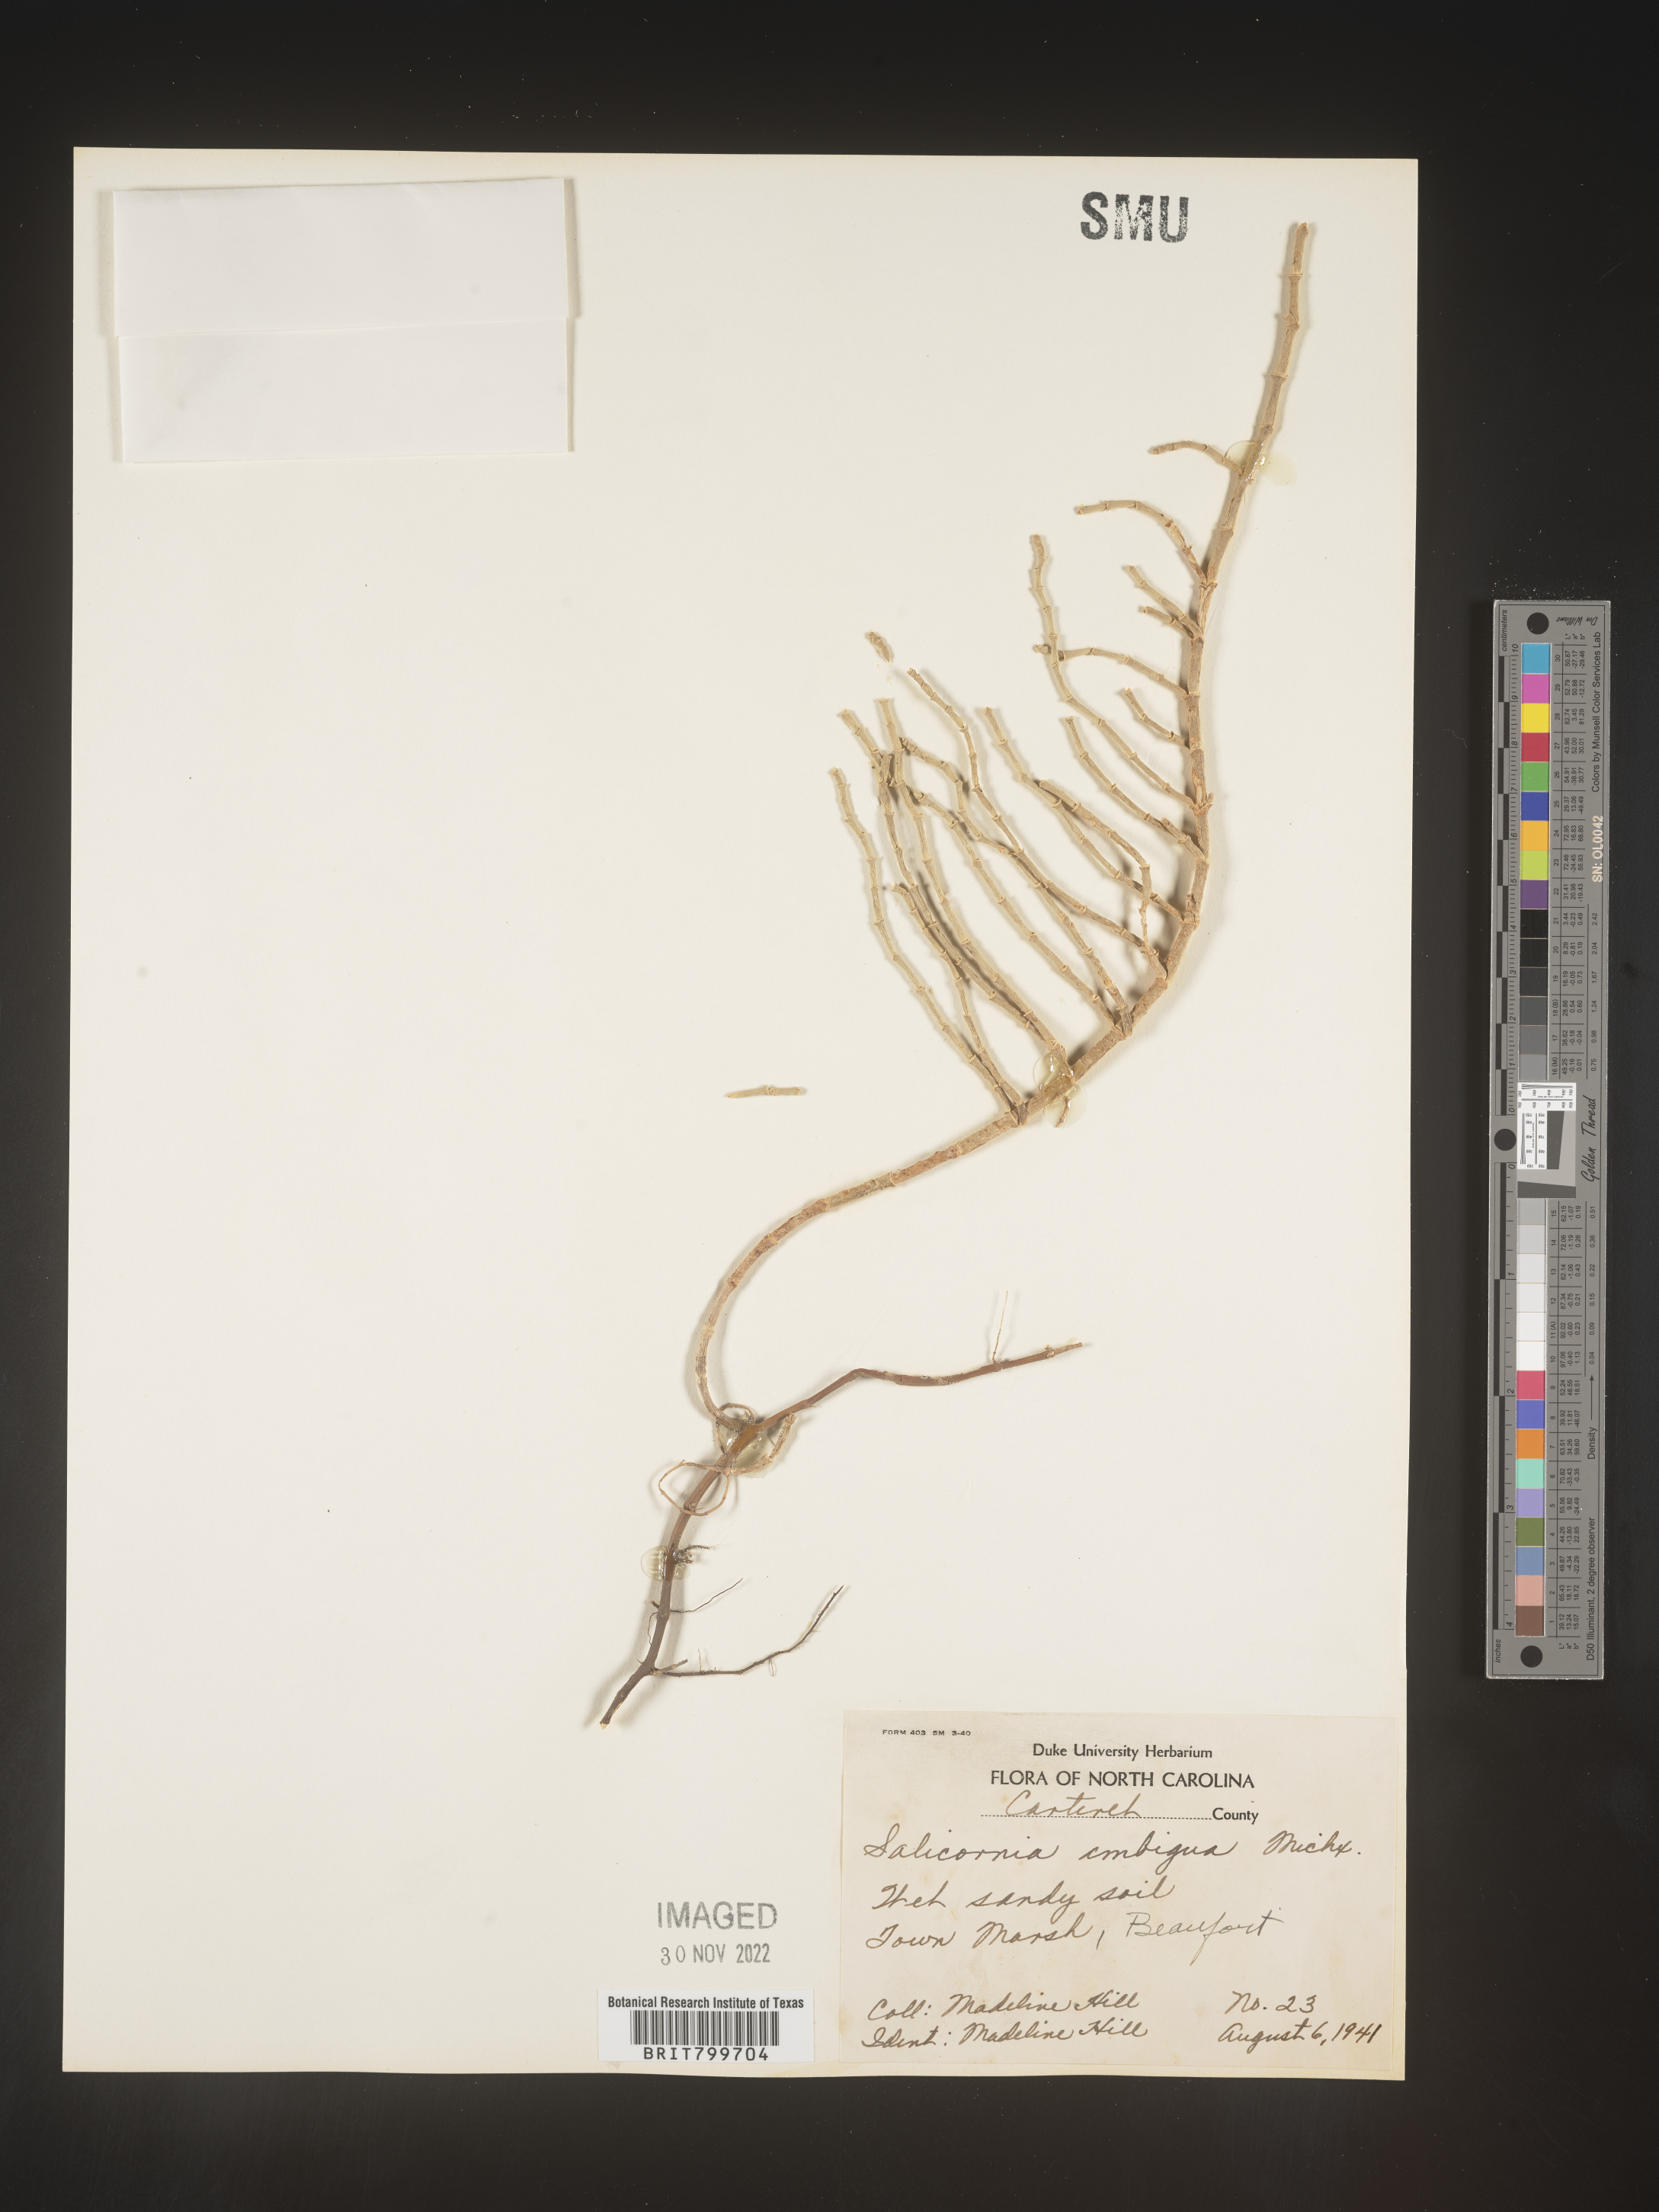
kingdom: Plantae
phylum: Tracheophyta
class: Magnoliopsida
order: Caryophyllales
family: Amaranthaceae
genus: Salicornia
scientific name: Salicornia virginica
